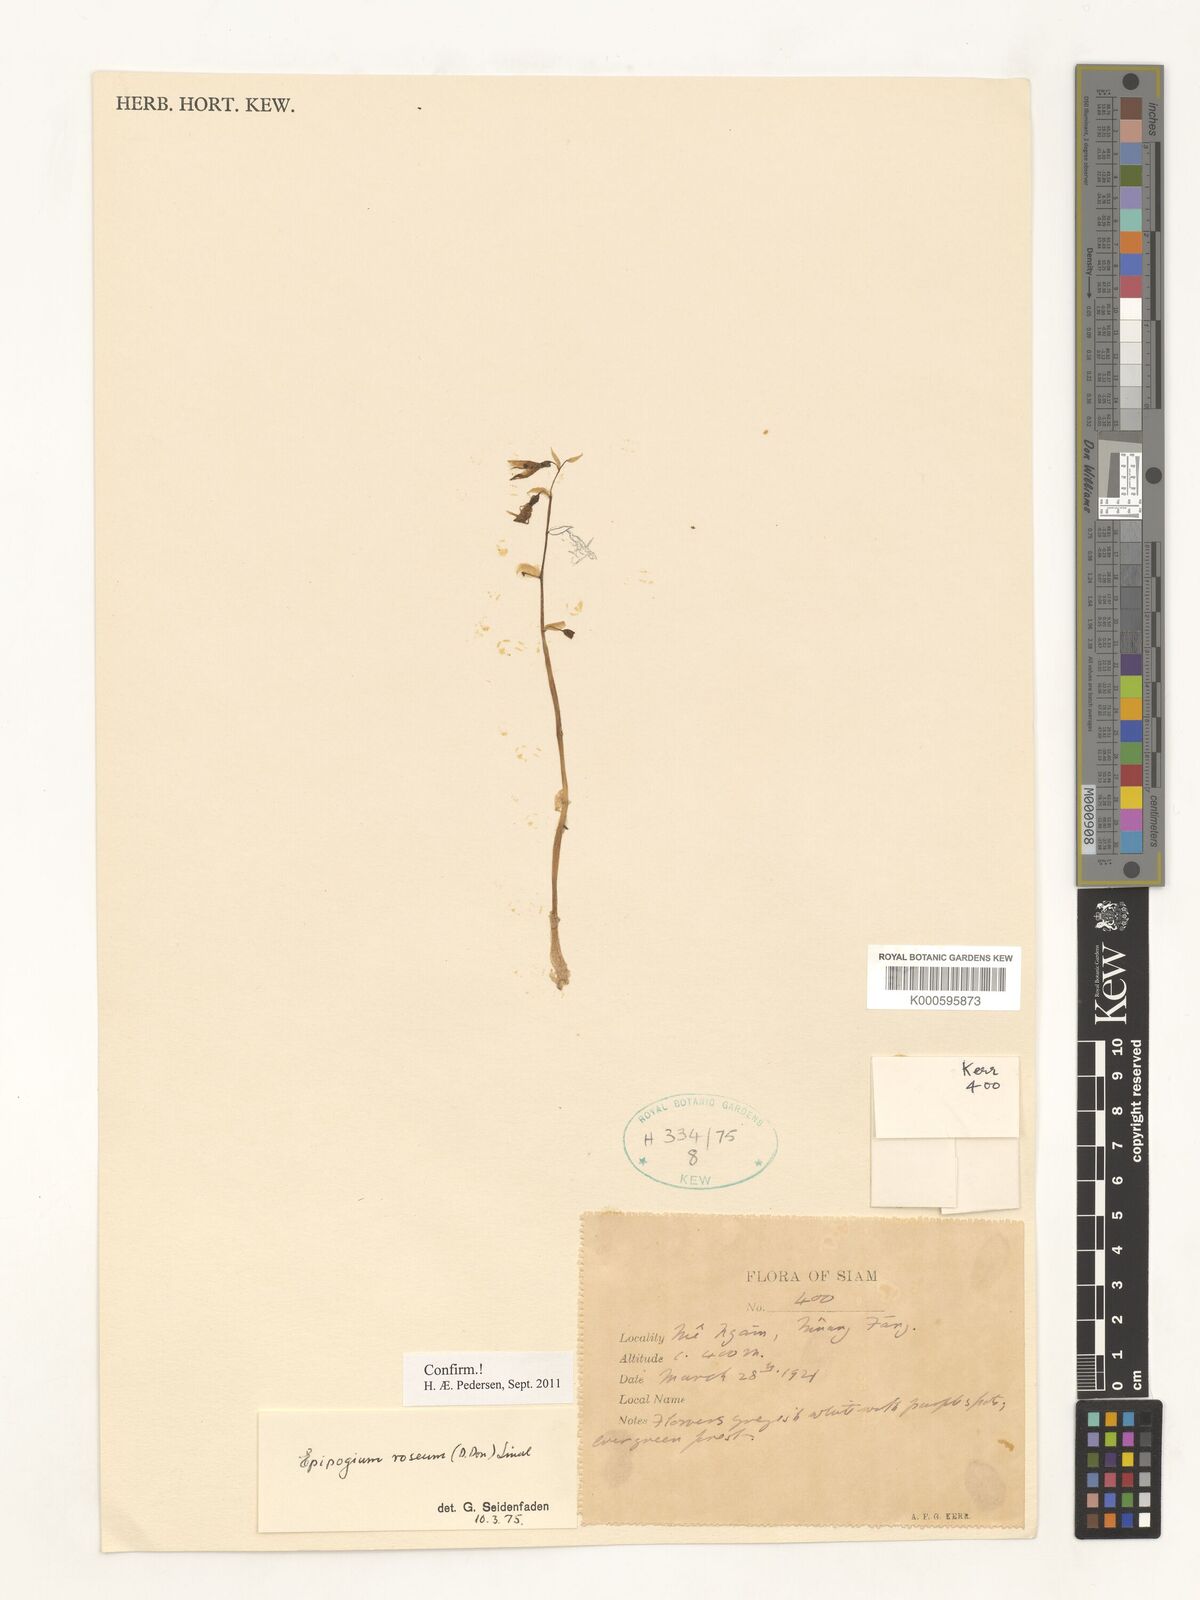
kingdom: Plantae
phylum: Tracheophyta
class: Liliopsida
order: Asparagales
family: Orchidaceae
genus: Epipogium
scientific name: Epipogium roseum
